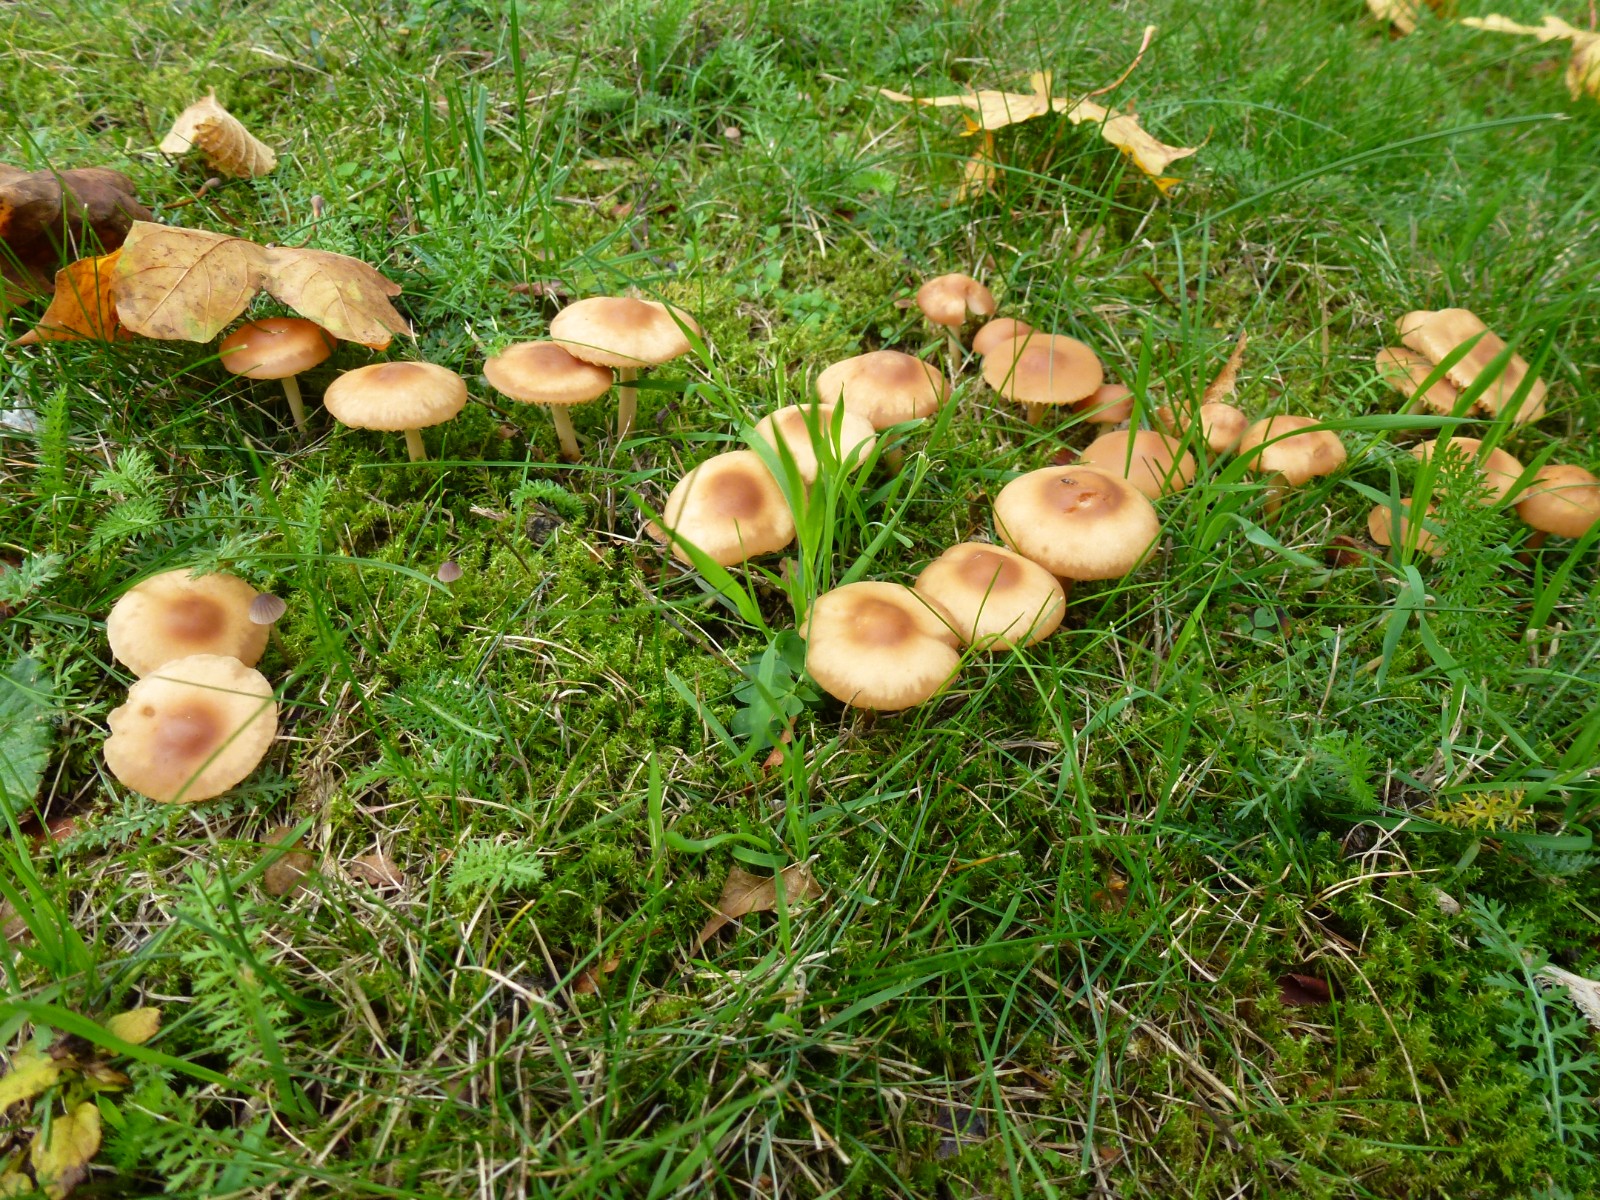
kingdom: Fungi
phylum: Basidiomycota
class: Agaricomycetes
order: Agaricales
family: Marasmiaceae
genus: Marasmius
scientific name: Marasmius oreades
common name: elledans-bruskhat
